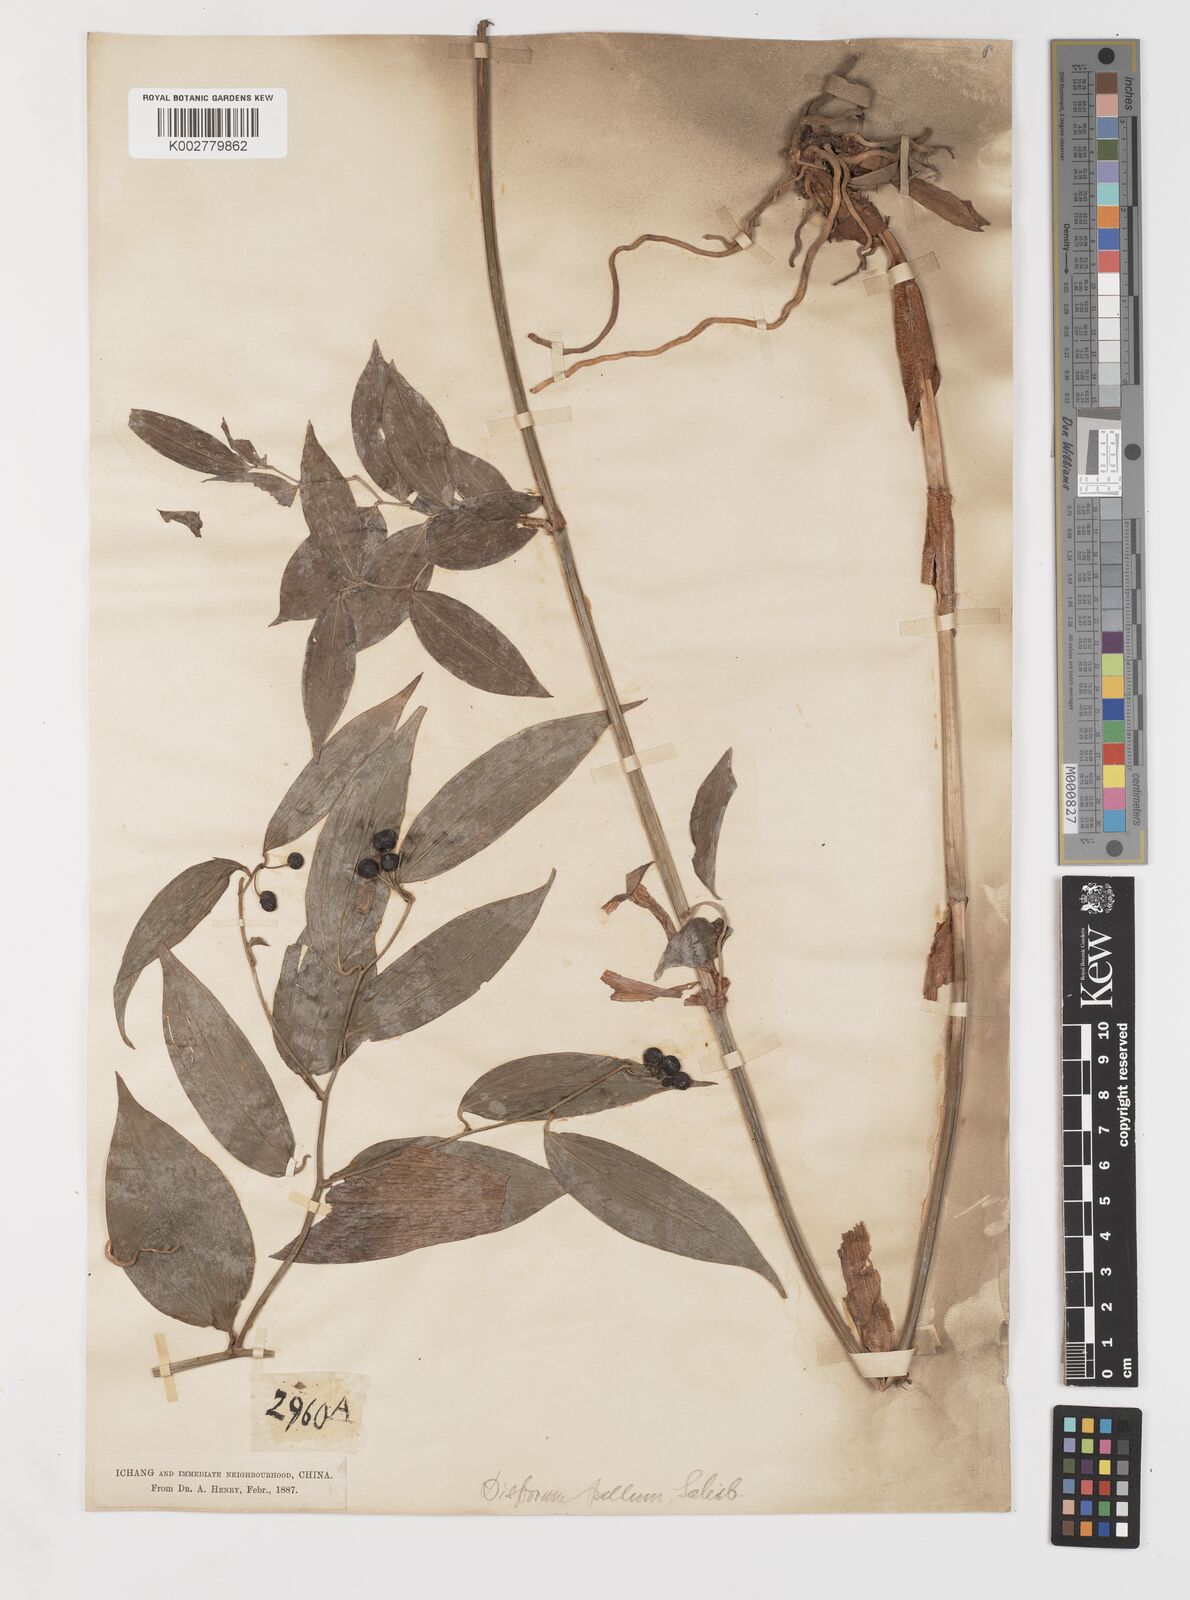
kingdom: Plantae
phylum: Tracheophyta
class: Liliopsida
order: Liliales
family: Colchicaceae
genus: Disporum
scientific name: Disporum
